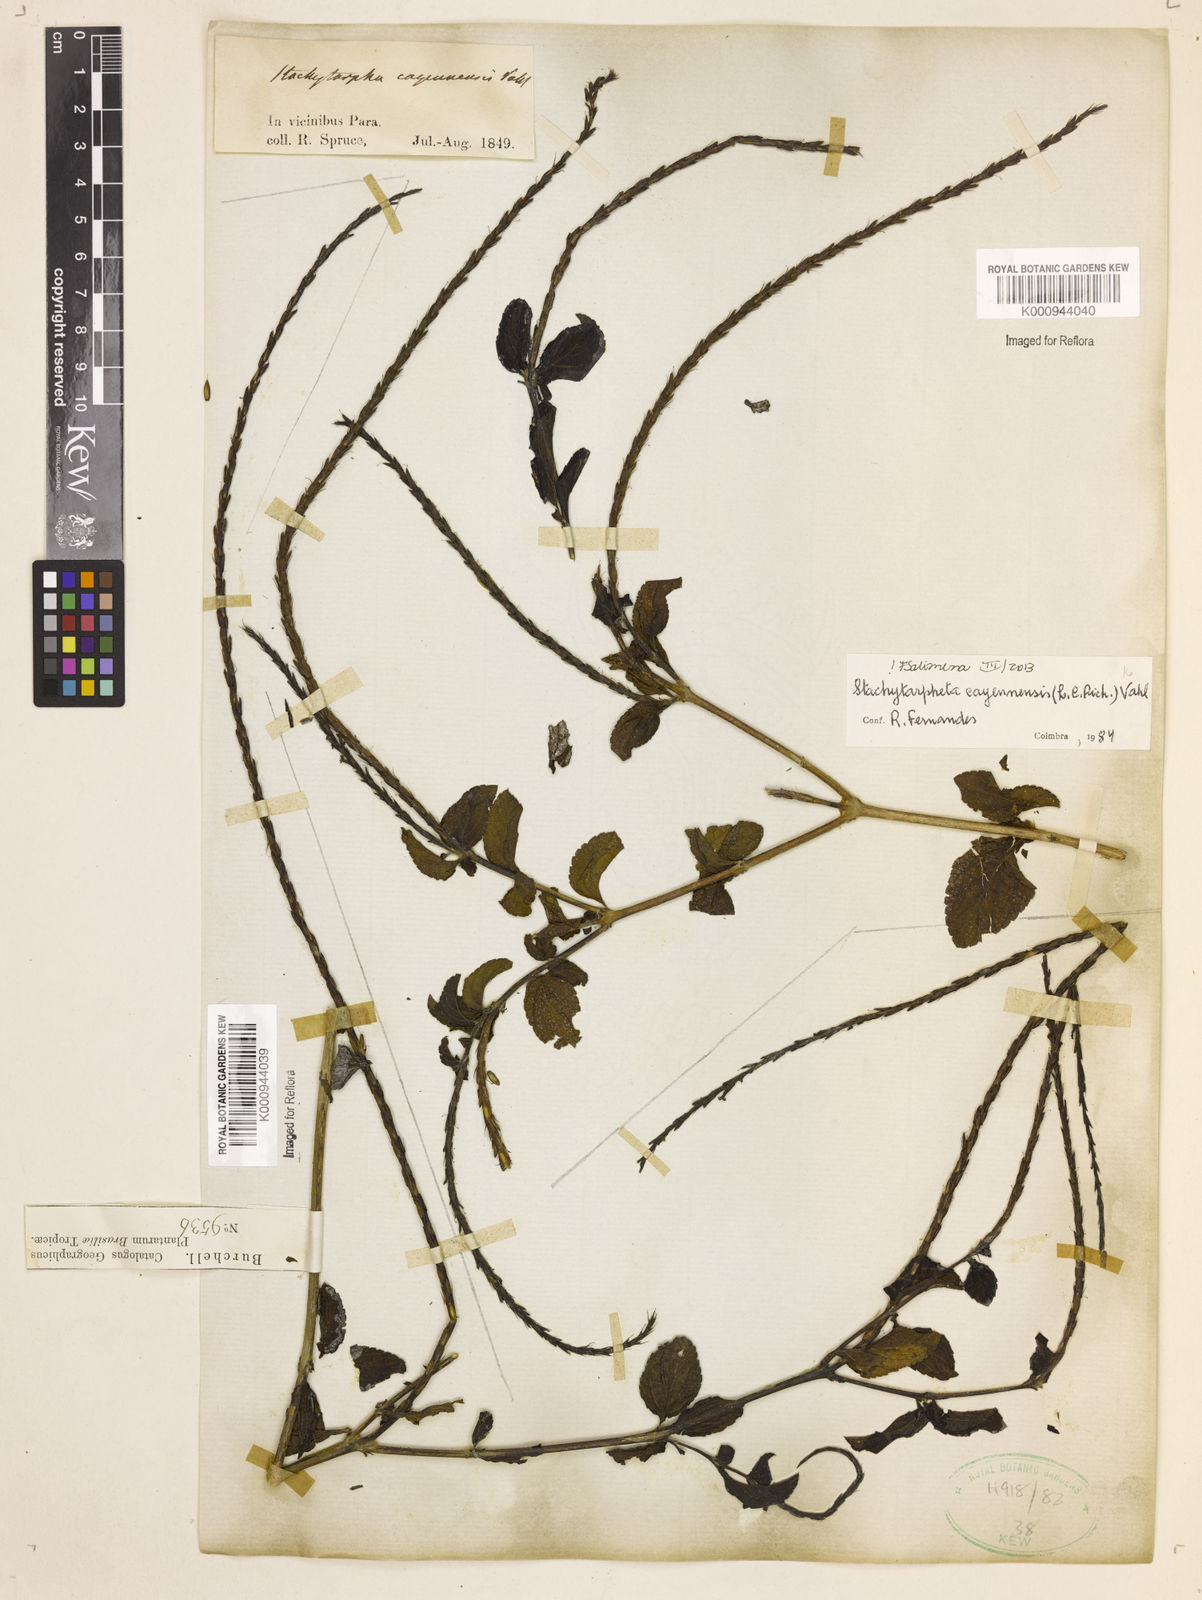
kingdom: Plantae
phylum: Tracheophyta
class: Magnoliopsida
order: Lamiales
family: Verbenaceae
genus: Aloysia
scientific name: Aloysia
